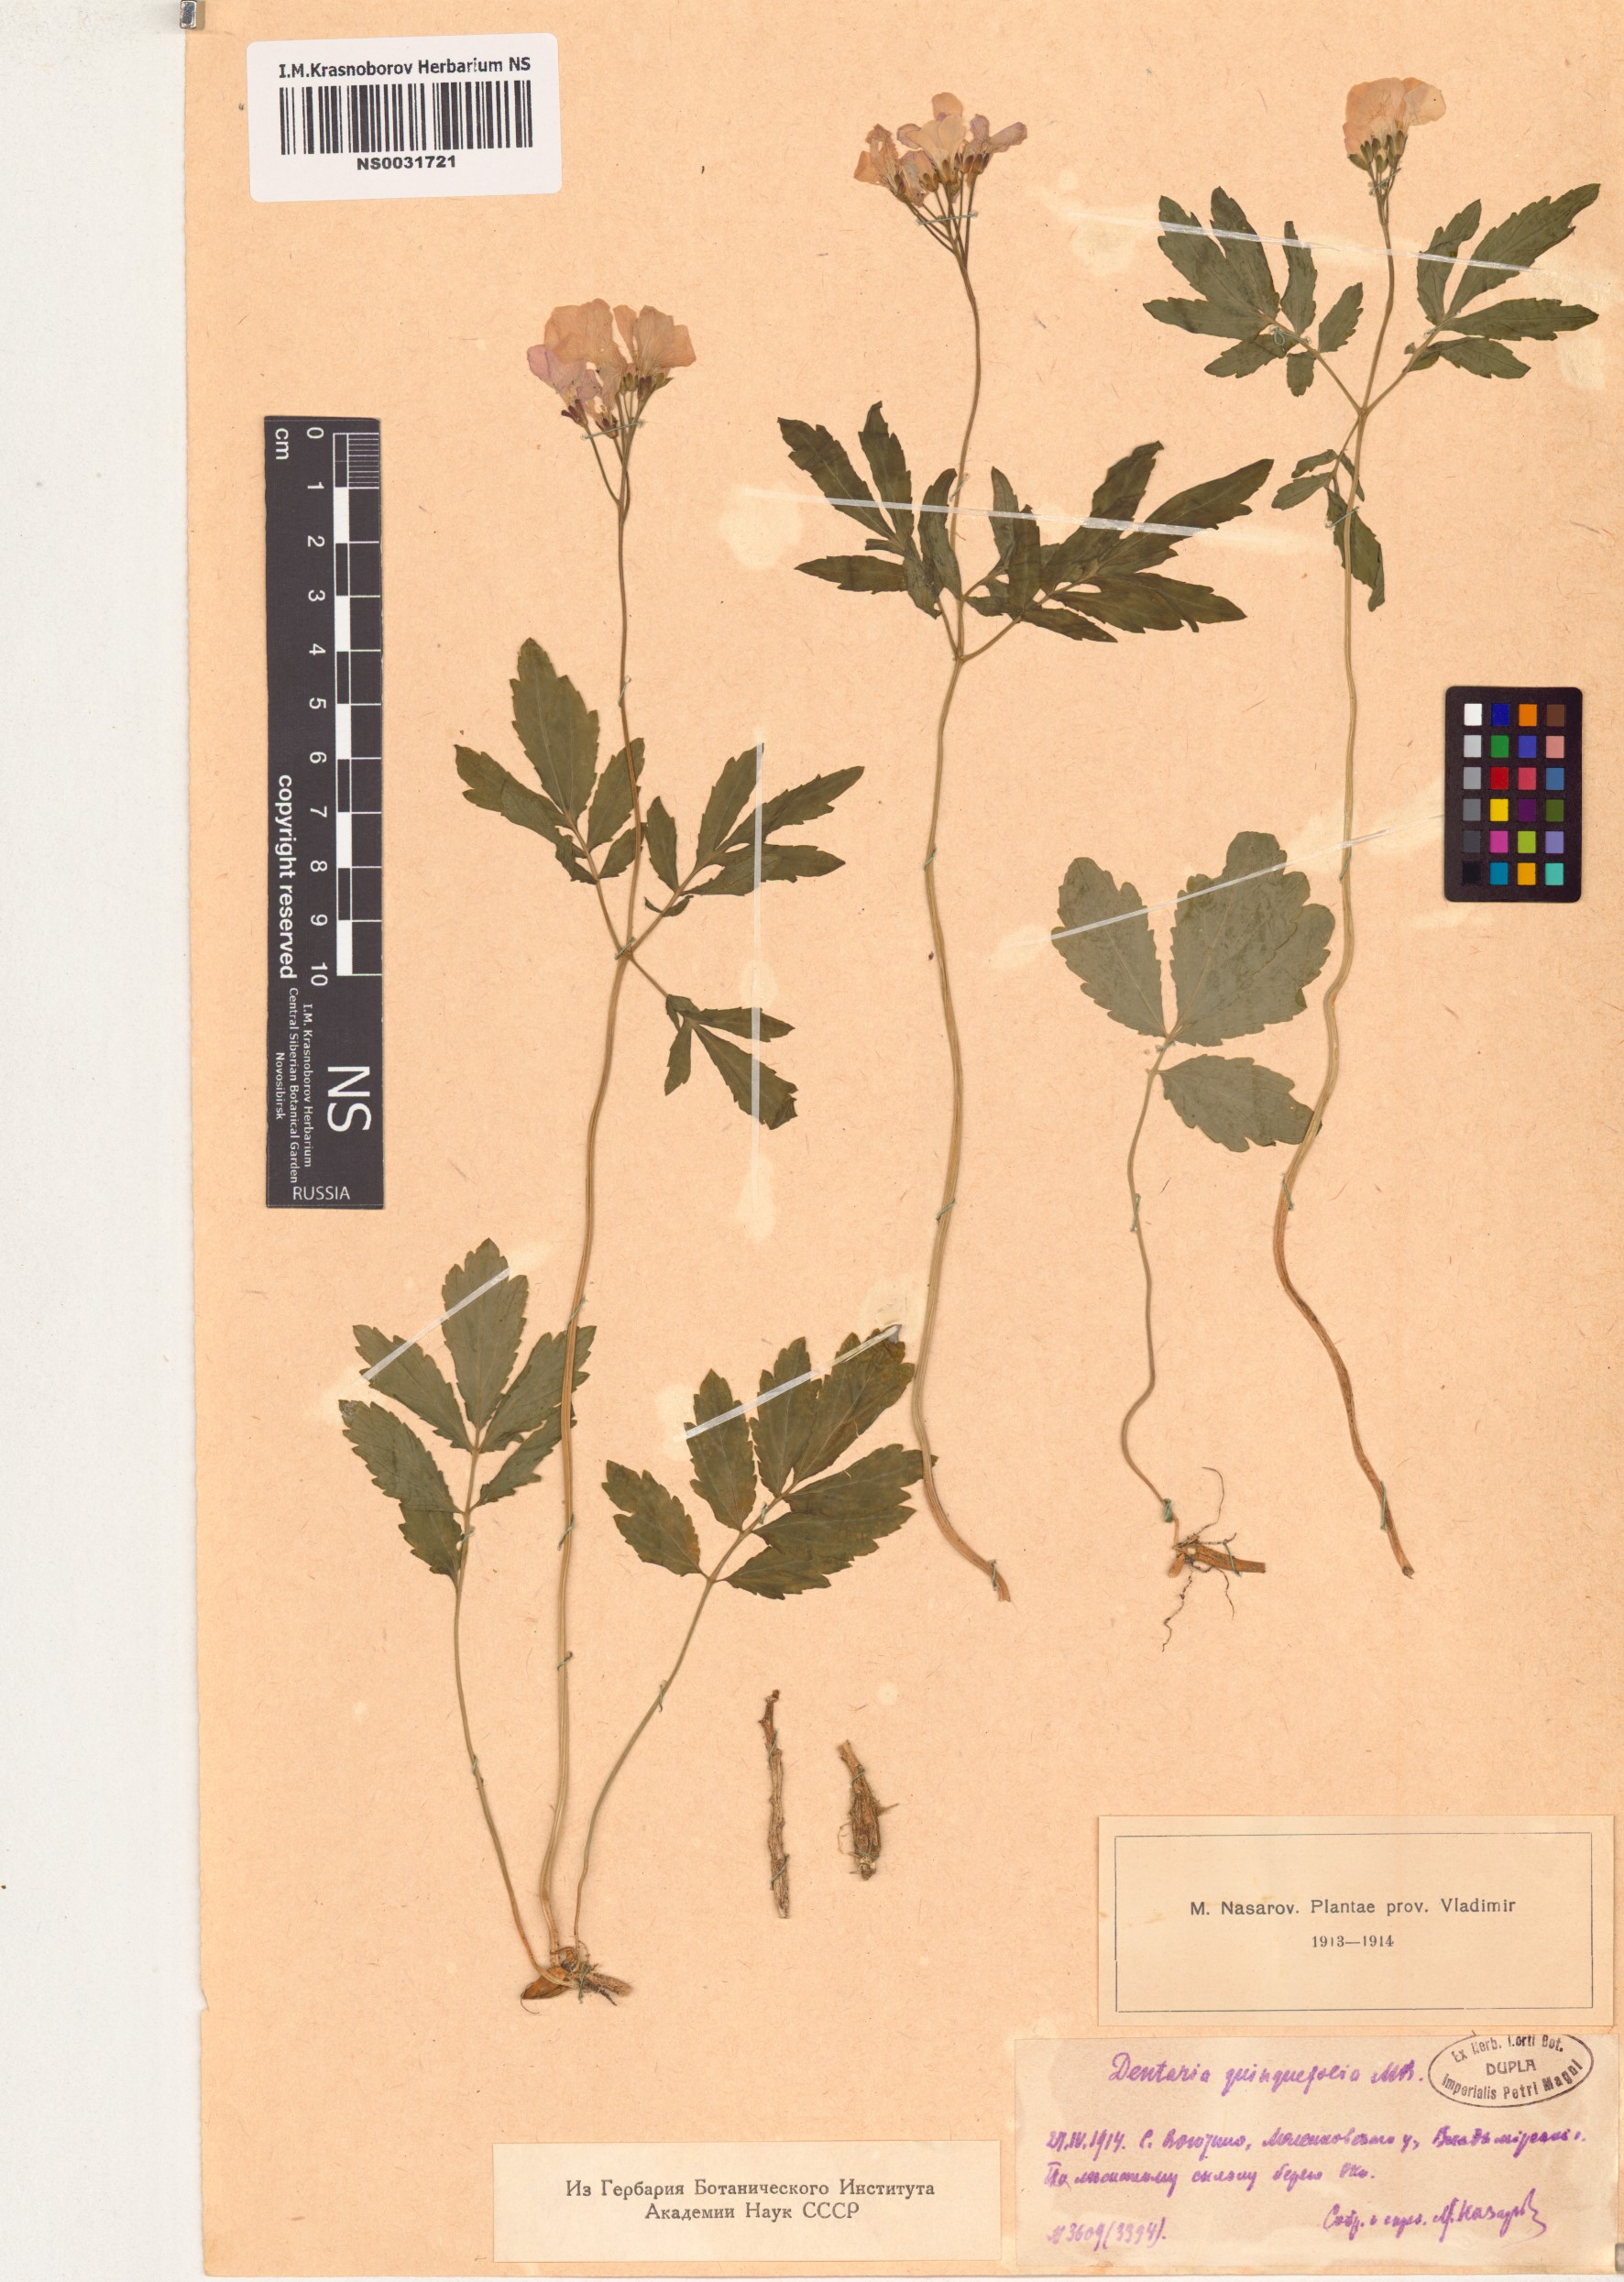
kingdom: Plantae
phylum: Tracheophyta
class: Magnoliopsida
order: Brassicales
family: Brassicaceae
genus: Cardamine
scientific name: Cardamine quinquefolia
